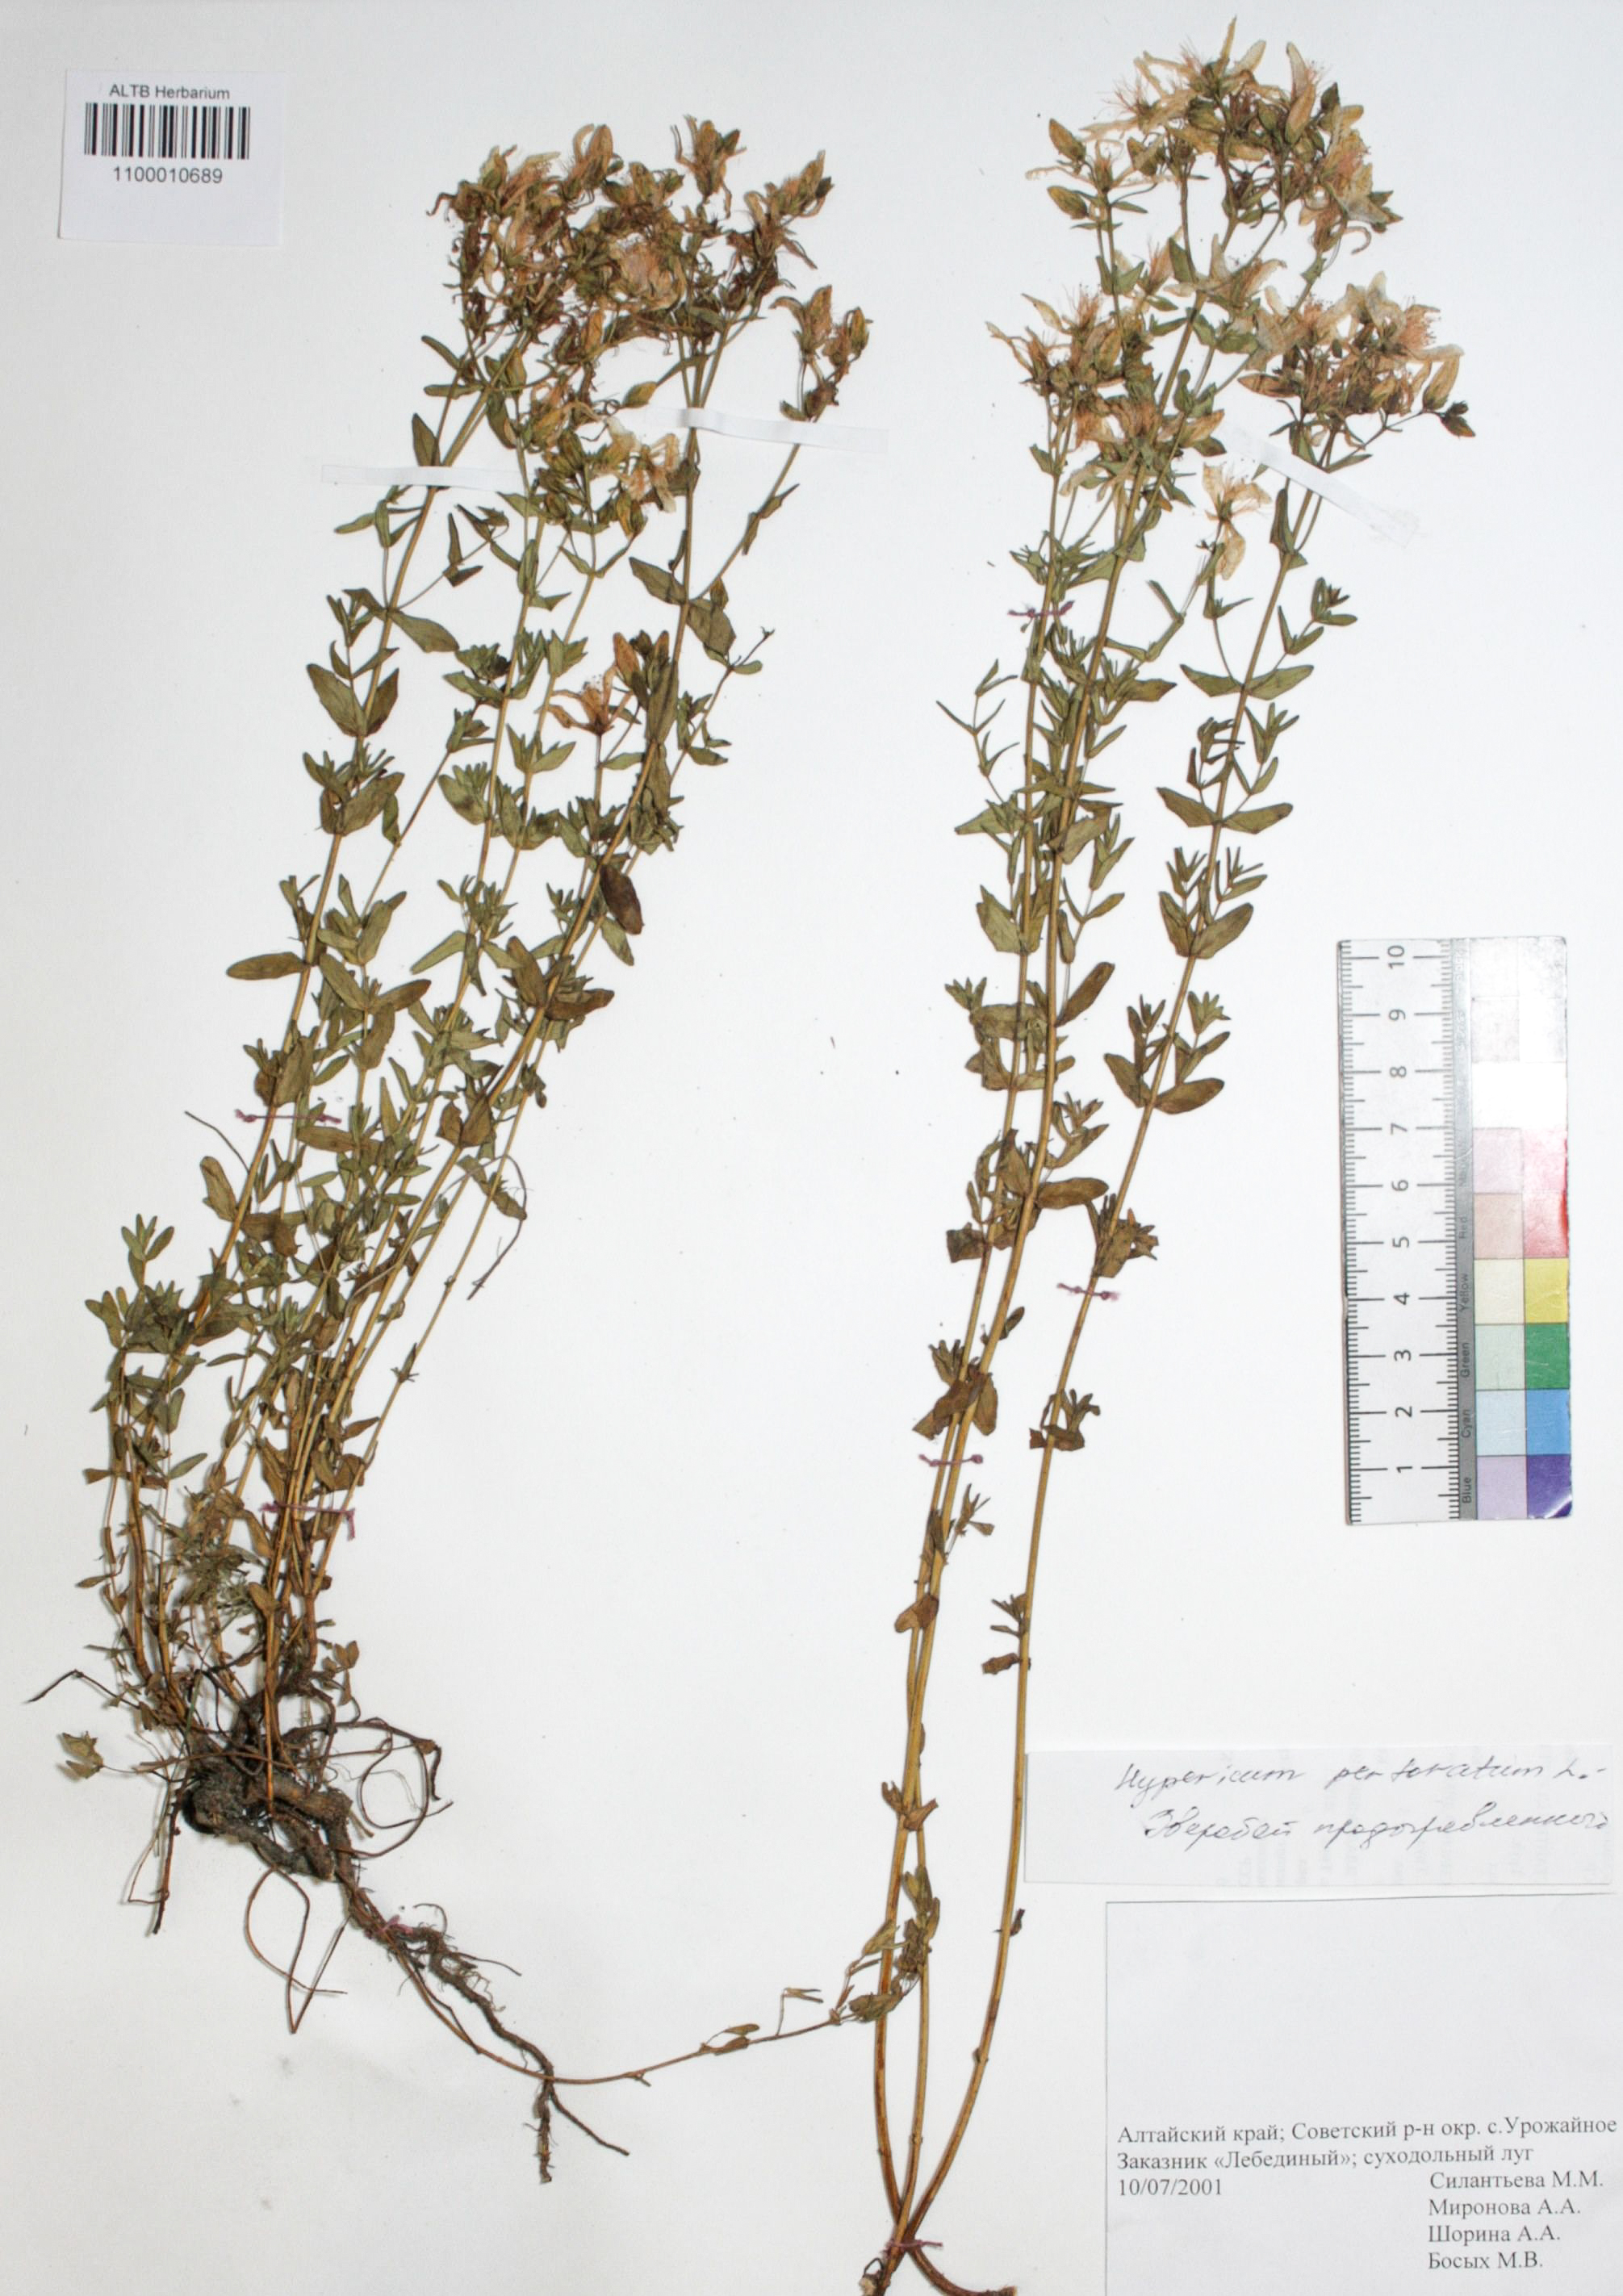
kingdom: Plantae
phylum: Tracheophyta
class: Magnoliopsida
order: Malpighiales
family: Hypericaceae
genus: Hypericum
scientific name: Hypericum perforatum
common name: Common st. johnswort
